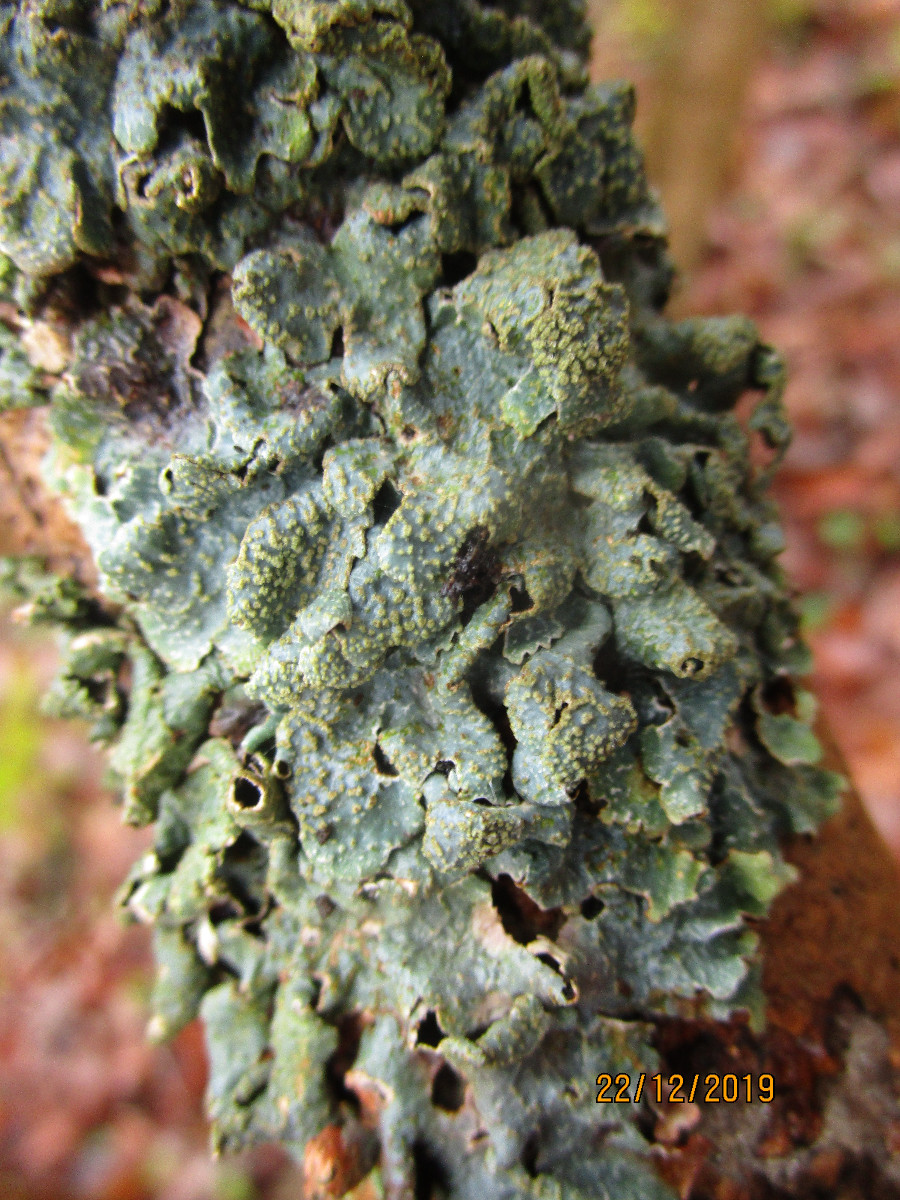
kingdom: Fungi
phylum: Ascomycota
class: Lecanoromycetes
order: Lecanorales
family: Parmeliaceae
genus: Parmelia
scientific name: Parmelia sulcata
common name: rynket skållav
